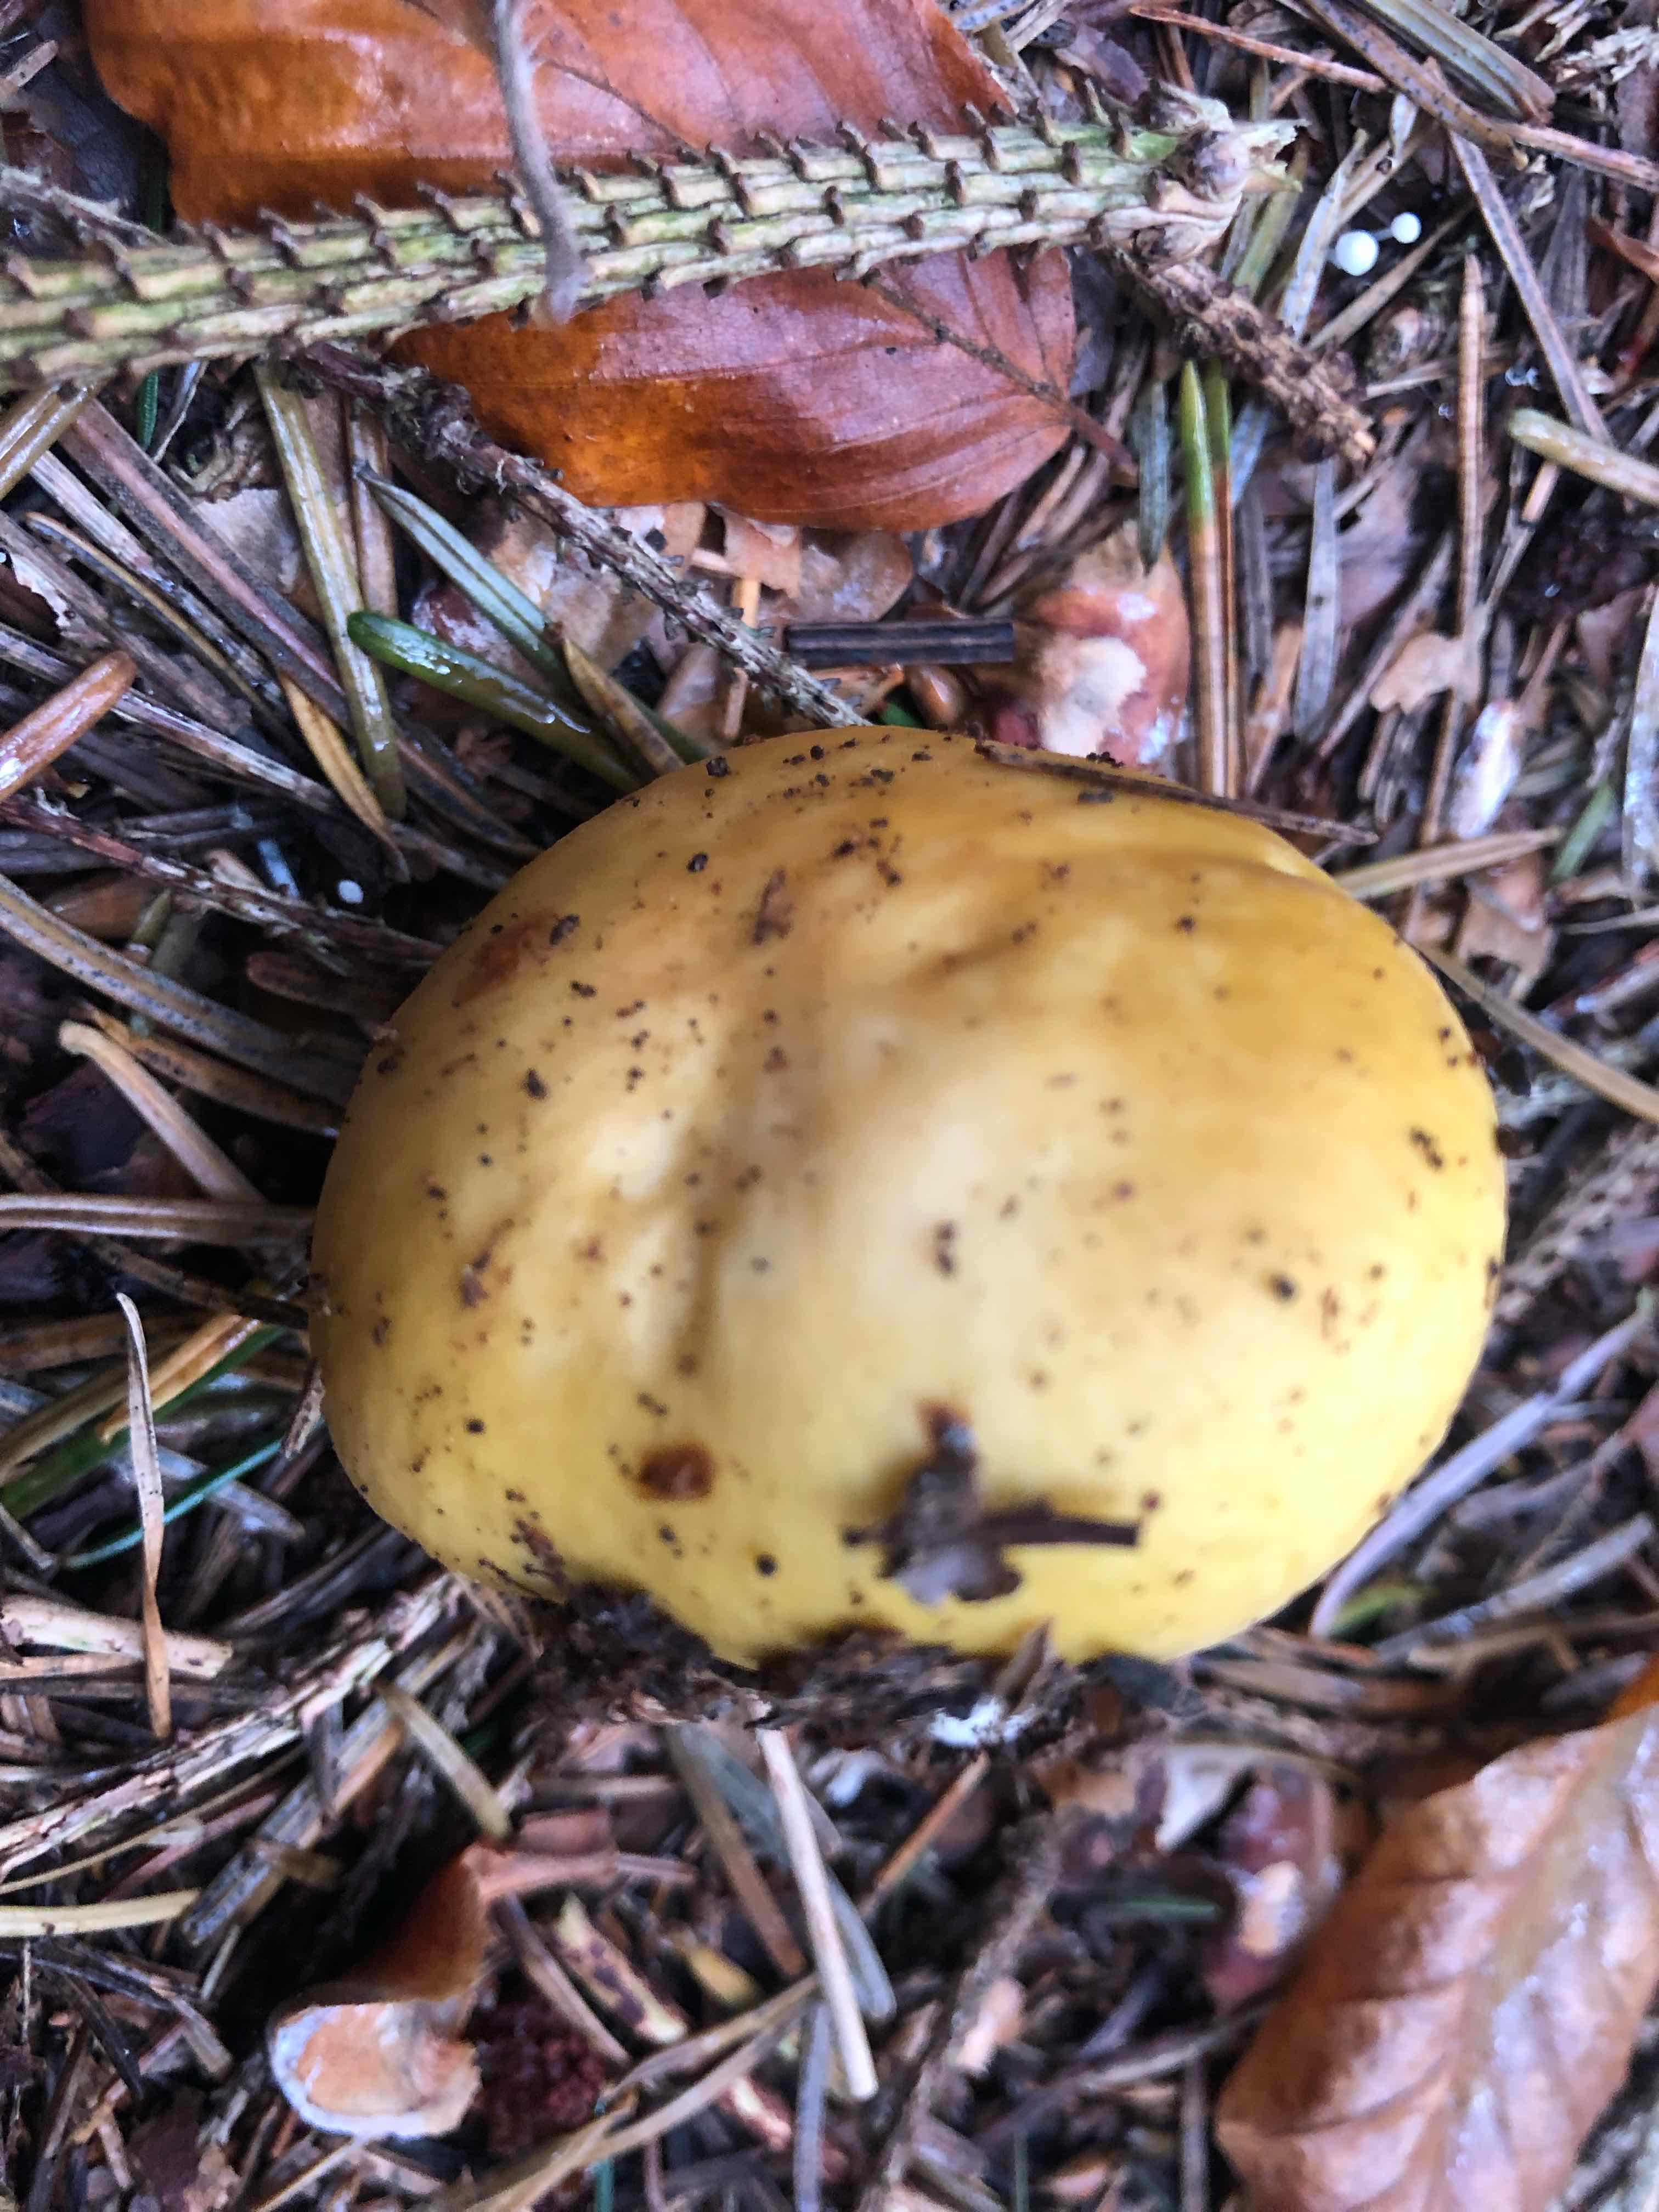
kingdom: Fungi
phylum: Basidiomycota
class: Agaricomycetes
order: Russulales
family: Russulaceae
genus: Russula
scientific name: Russula ochroleuca
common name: okkergul skørhat
